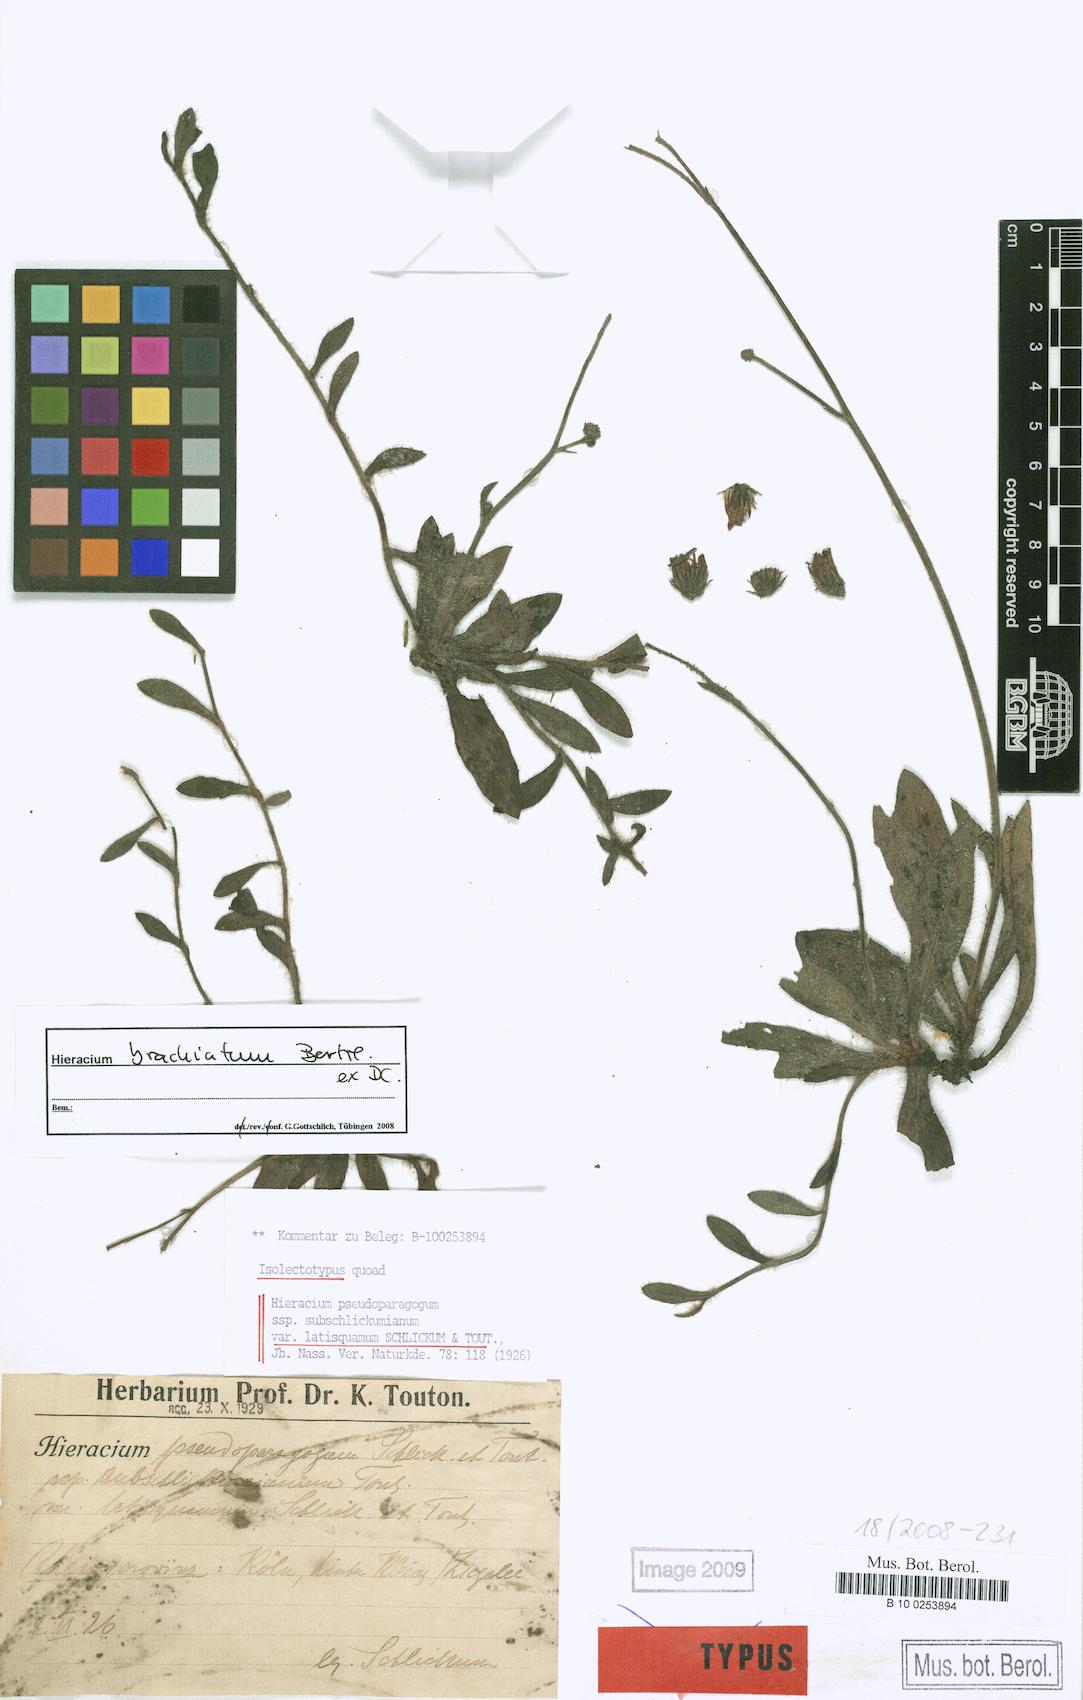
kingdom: Plantae
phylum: Tracheophyta
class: Magnoliopsida
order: Asterales
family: Asteraceae
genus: Pilosella
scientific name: Pilosella acutifolia
